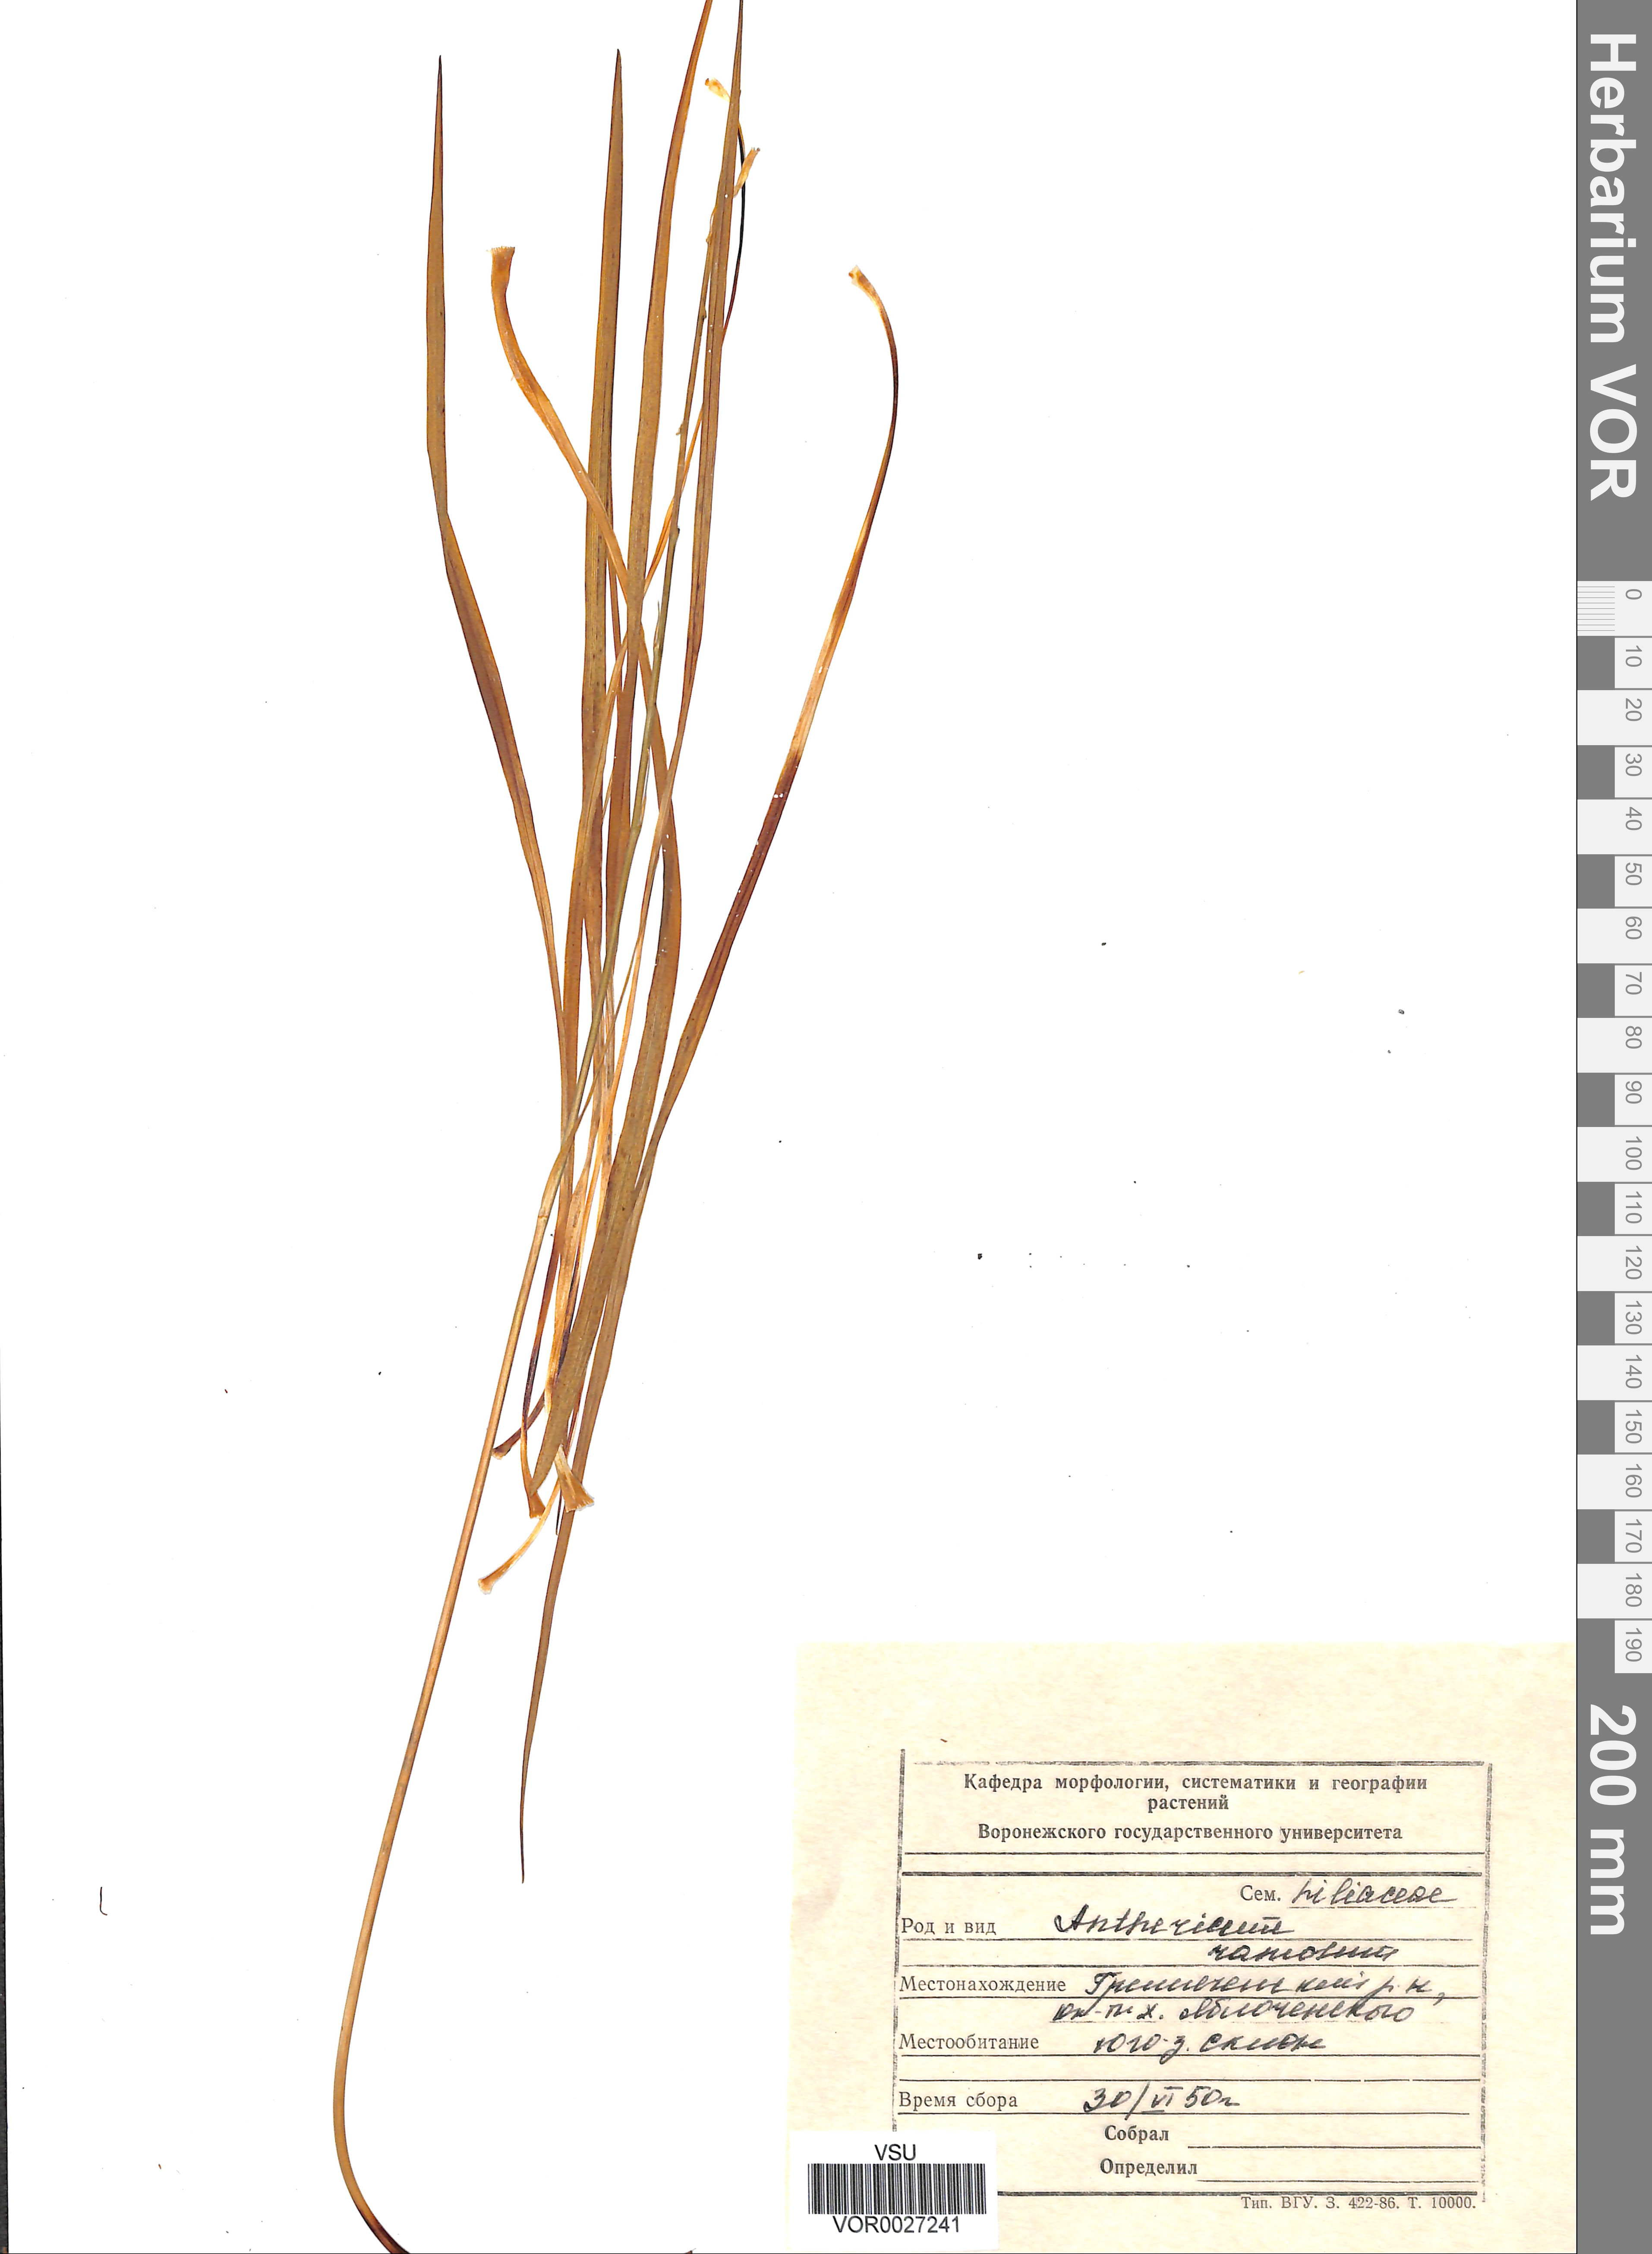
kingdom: Plantae
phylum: Tracheophyta
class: Liliopsida
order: Asparagales
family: Asparagaceae
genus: Anthericum
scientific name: Anthericum ramosum
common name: Branched st. bernard's-lily
